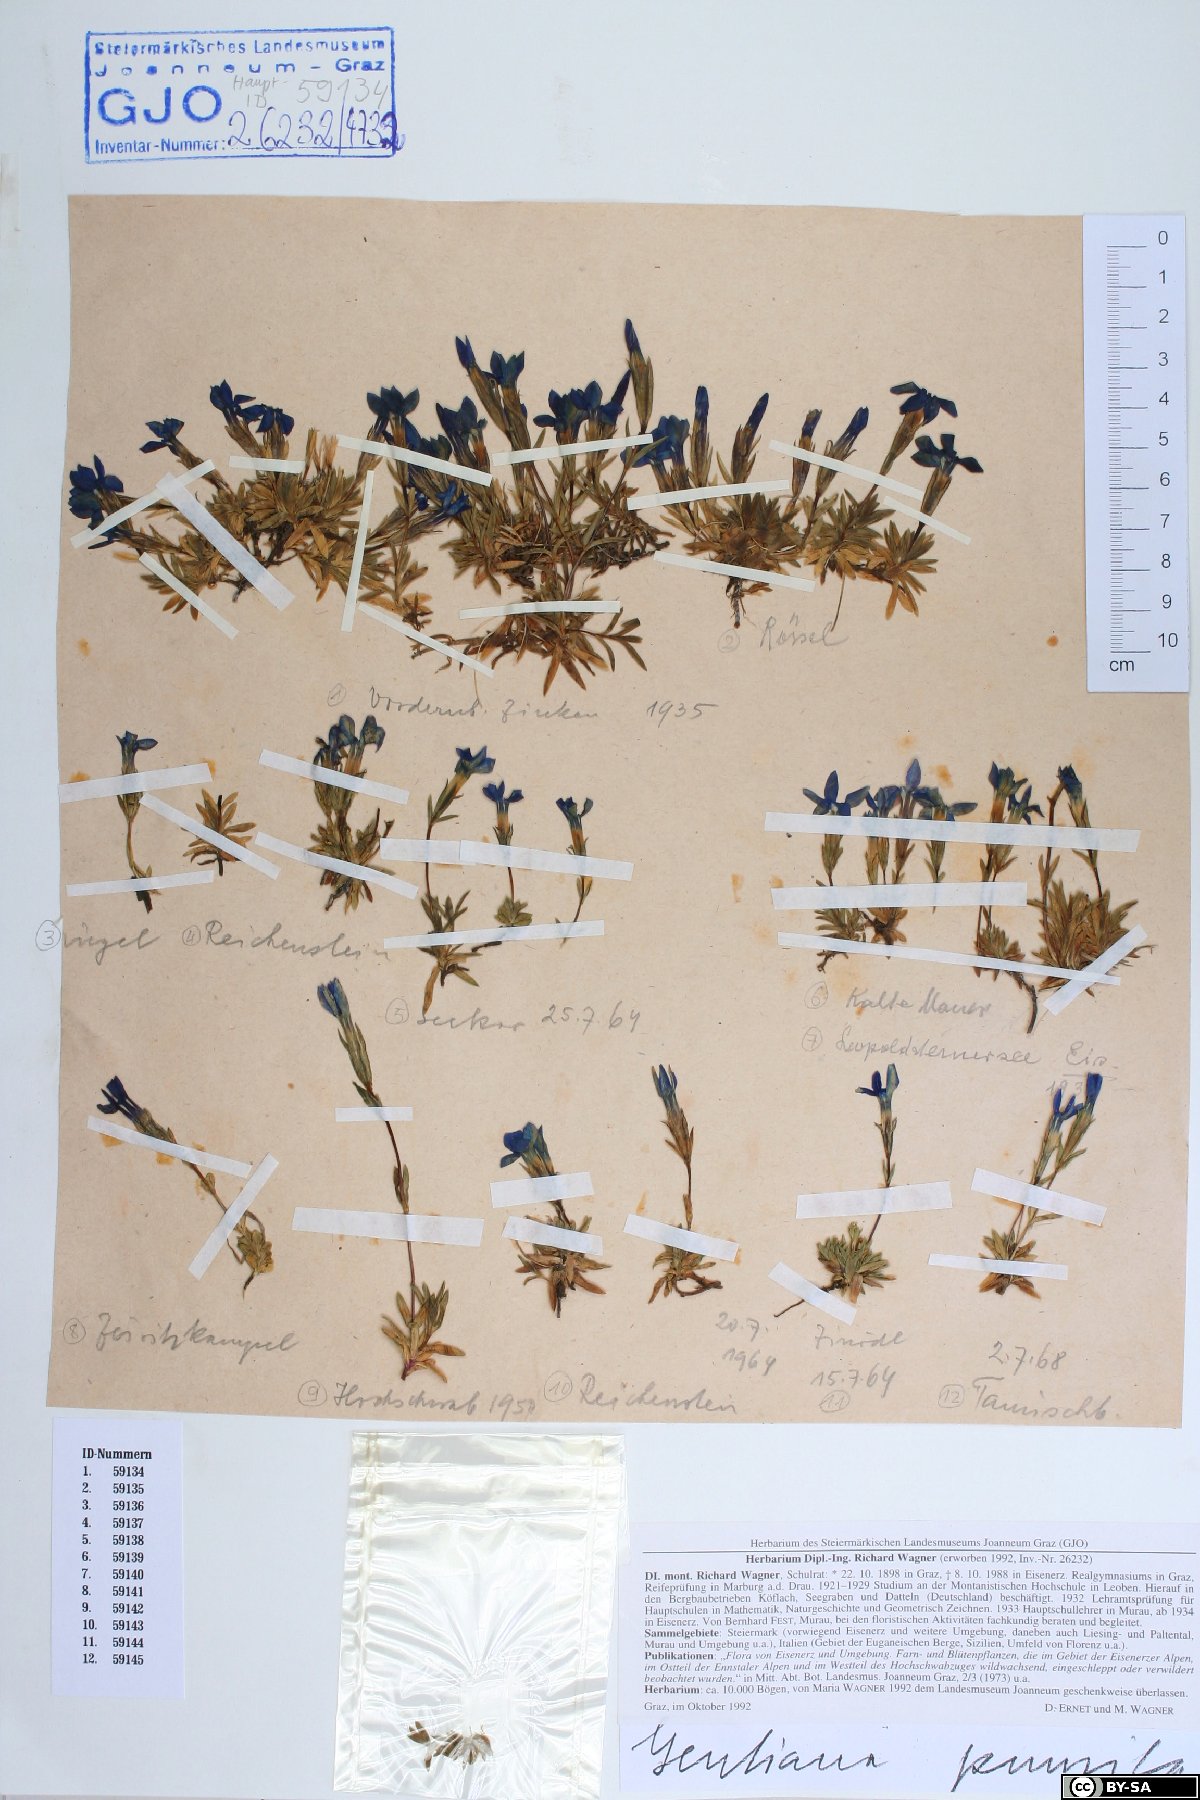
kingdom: Plantae
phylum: Tracheophyta
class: Magnoliopsida
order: Gentianales
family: Gentianaceae
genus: Gentiana
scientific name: Gentiana pumila
